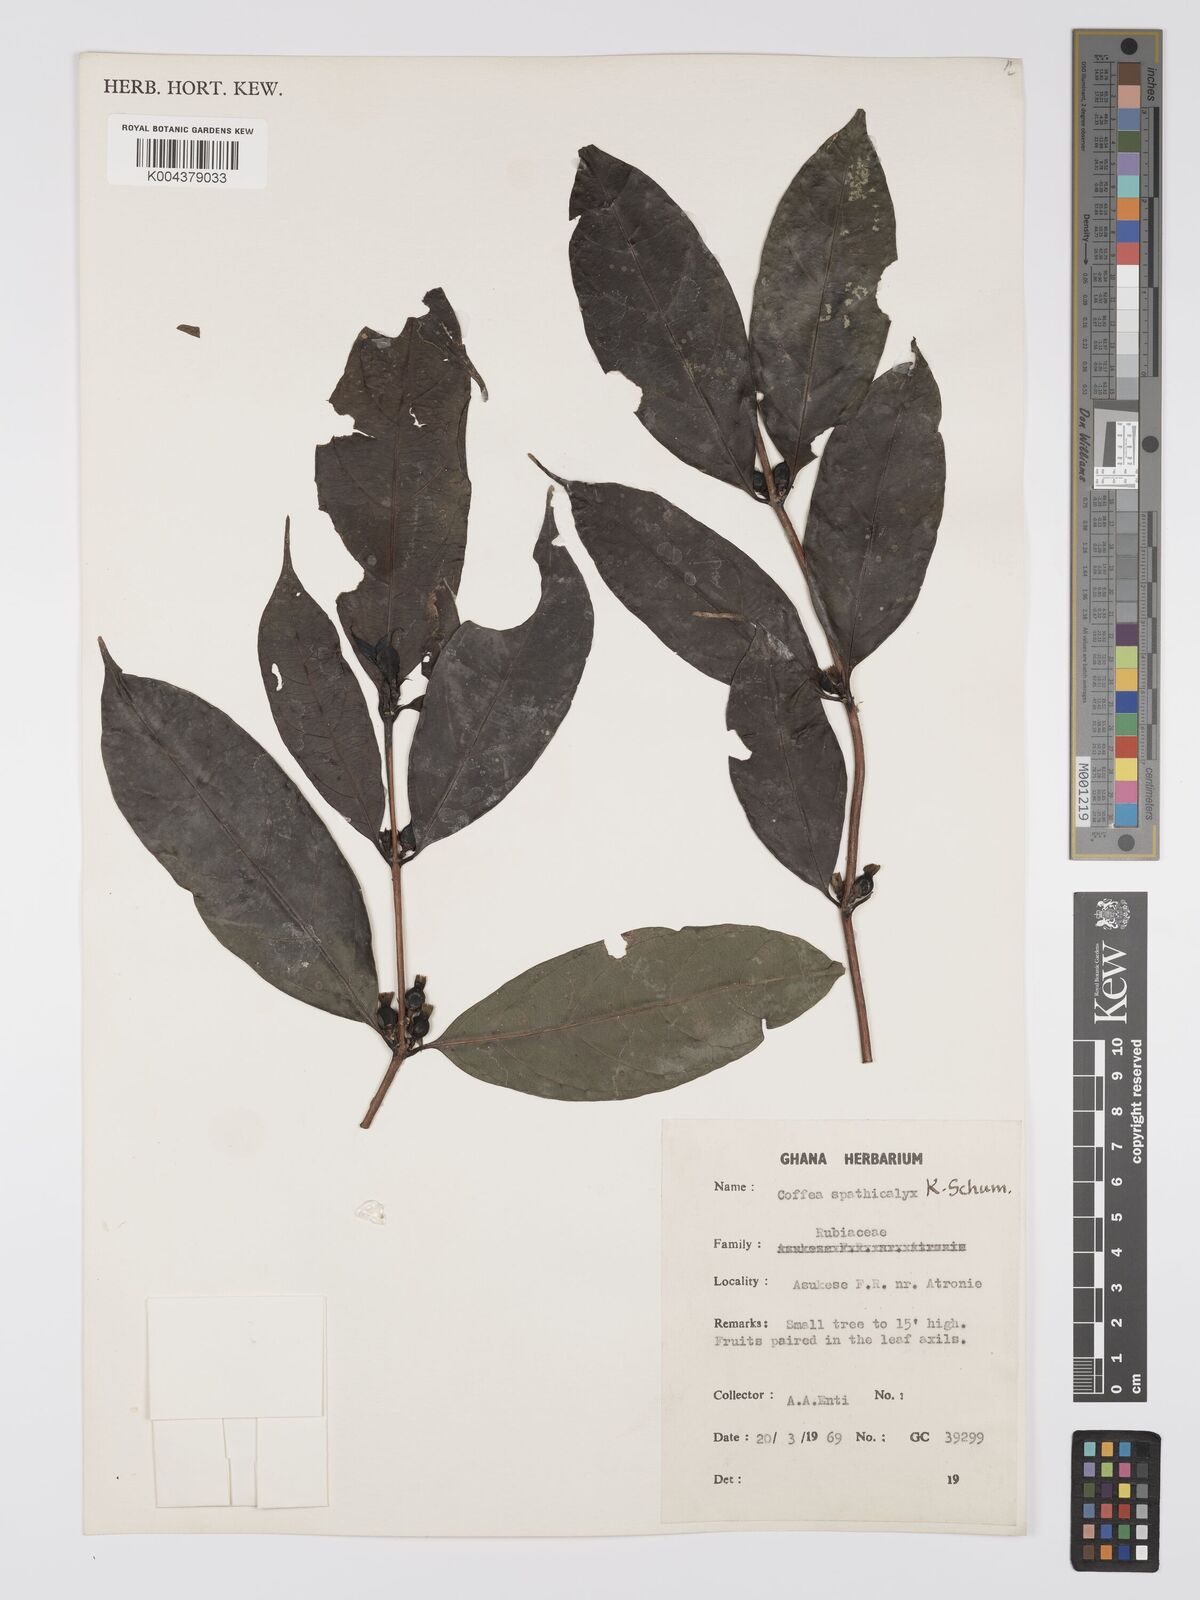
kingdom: Plantae
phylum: Tracheophyta
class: Magnoliopsida
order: Gentianales
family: Rubiaceae
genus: Calycosiphonia
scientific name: Calycosiphonia spathicalyx
